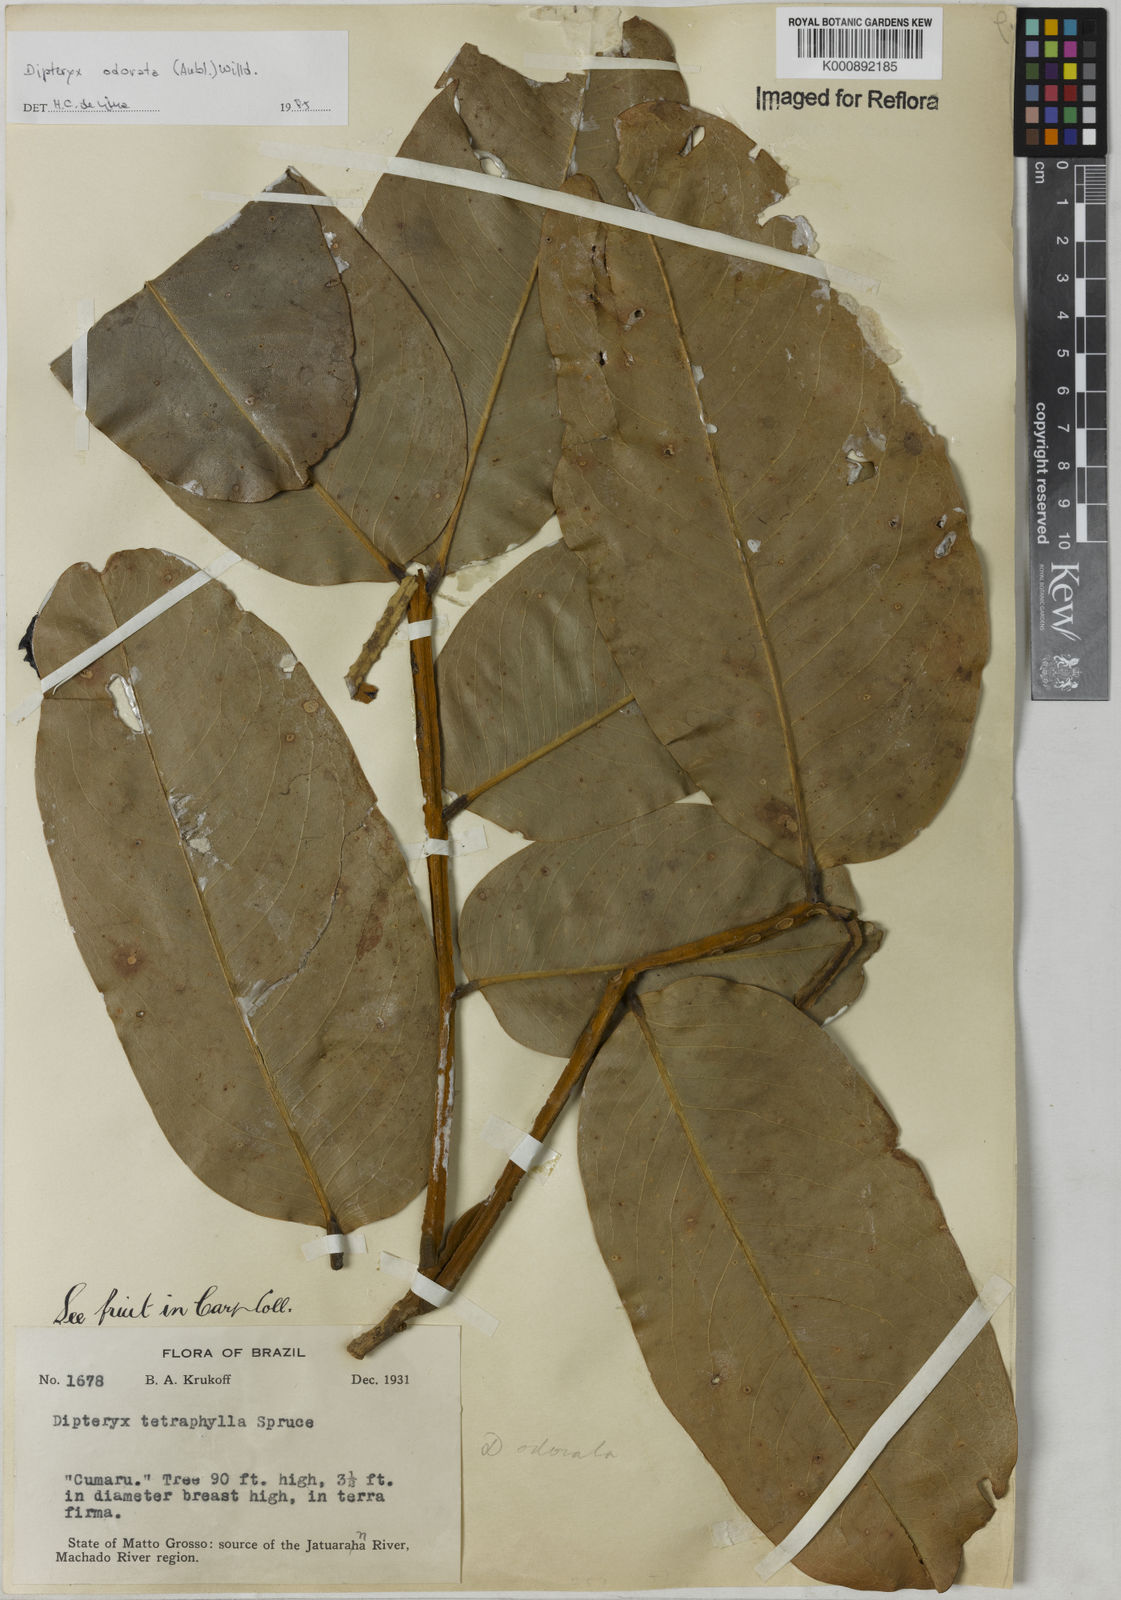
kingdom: Plantae
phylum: Tracheophyta
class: Magnoliopsida
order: Fabales
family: Fabaceae
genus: Dipteryx
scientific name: Dipteryx
